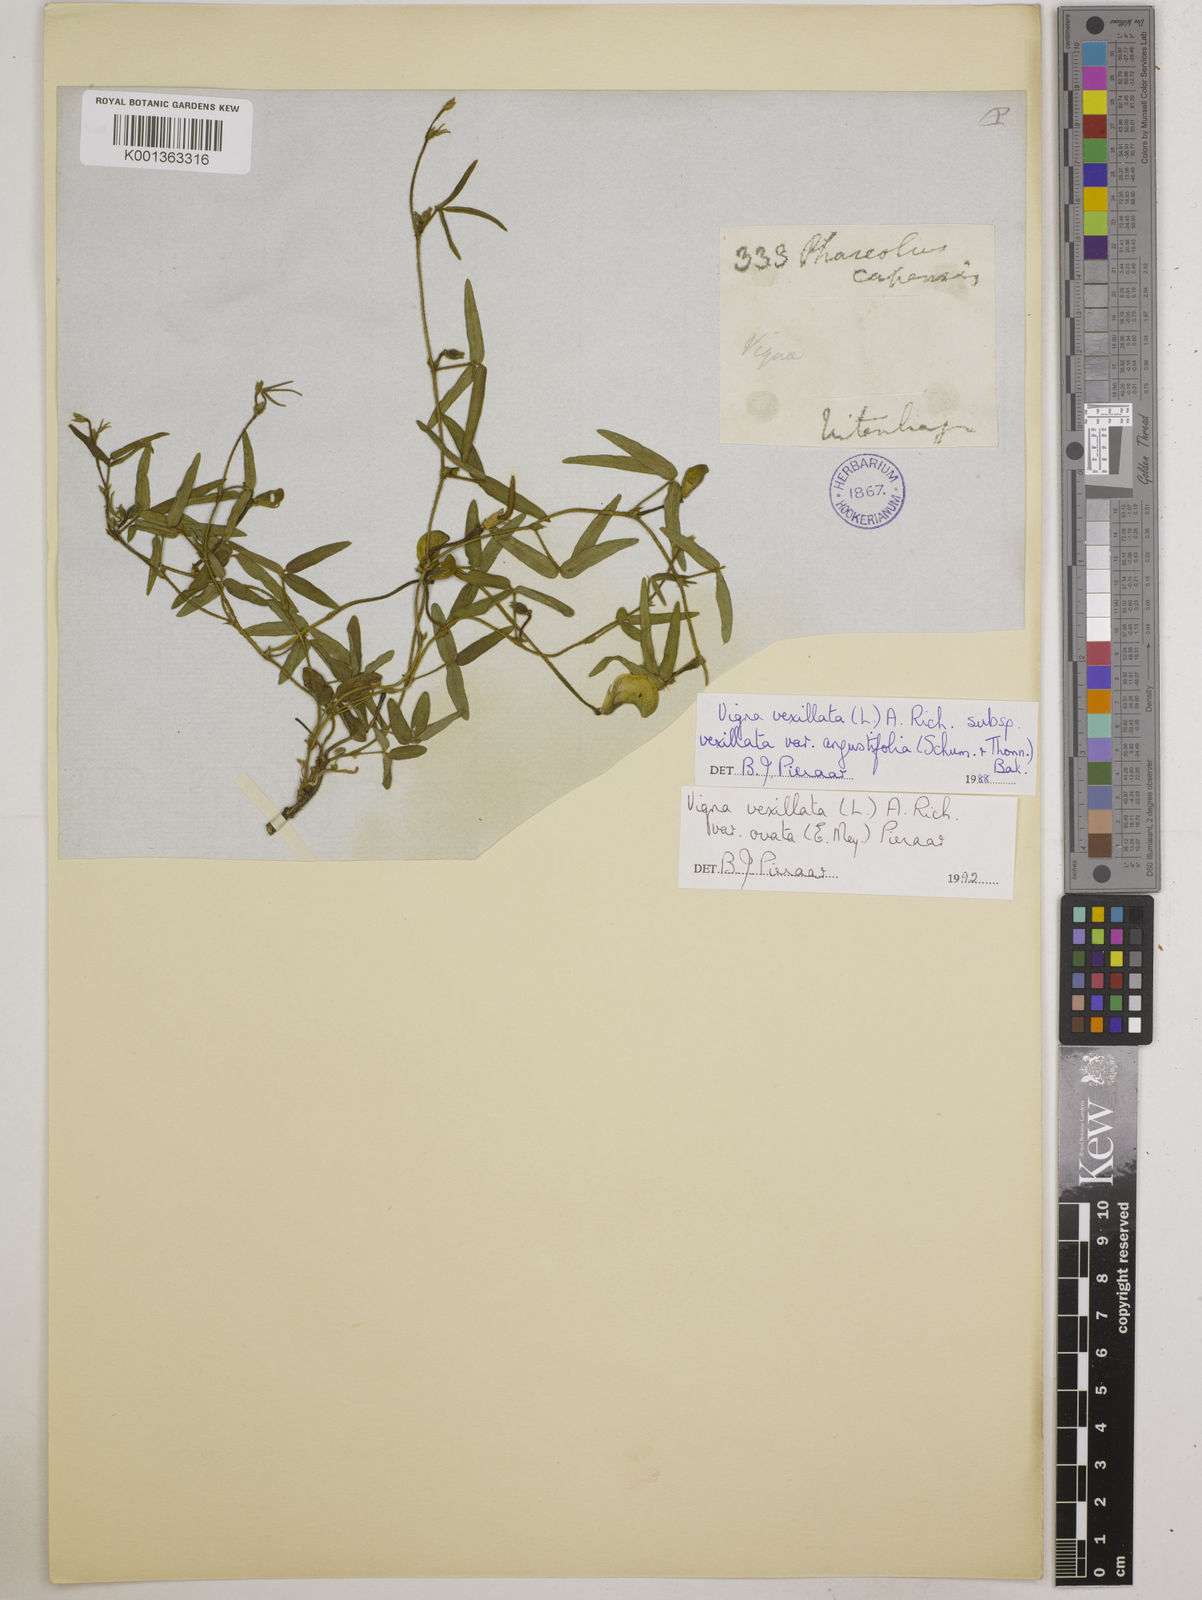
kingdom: Plantae
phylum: Tracheophyta
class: Magnoliopsida
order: Fabales
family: Fabaceae
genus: Vigna
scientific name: Vigna
